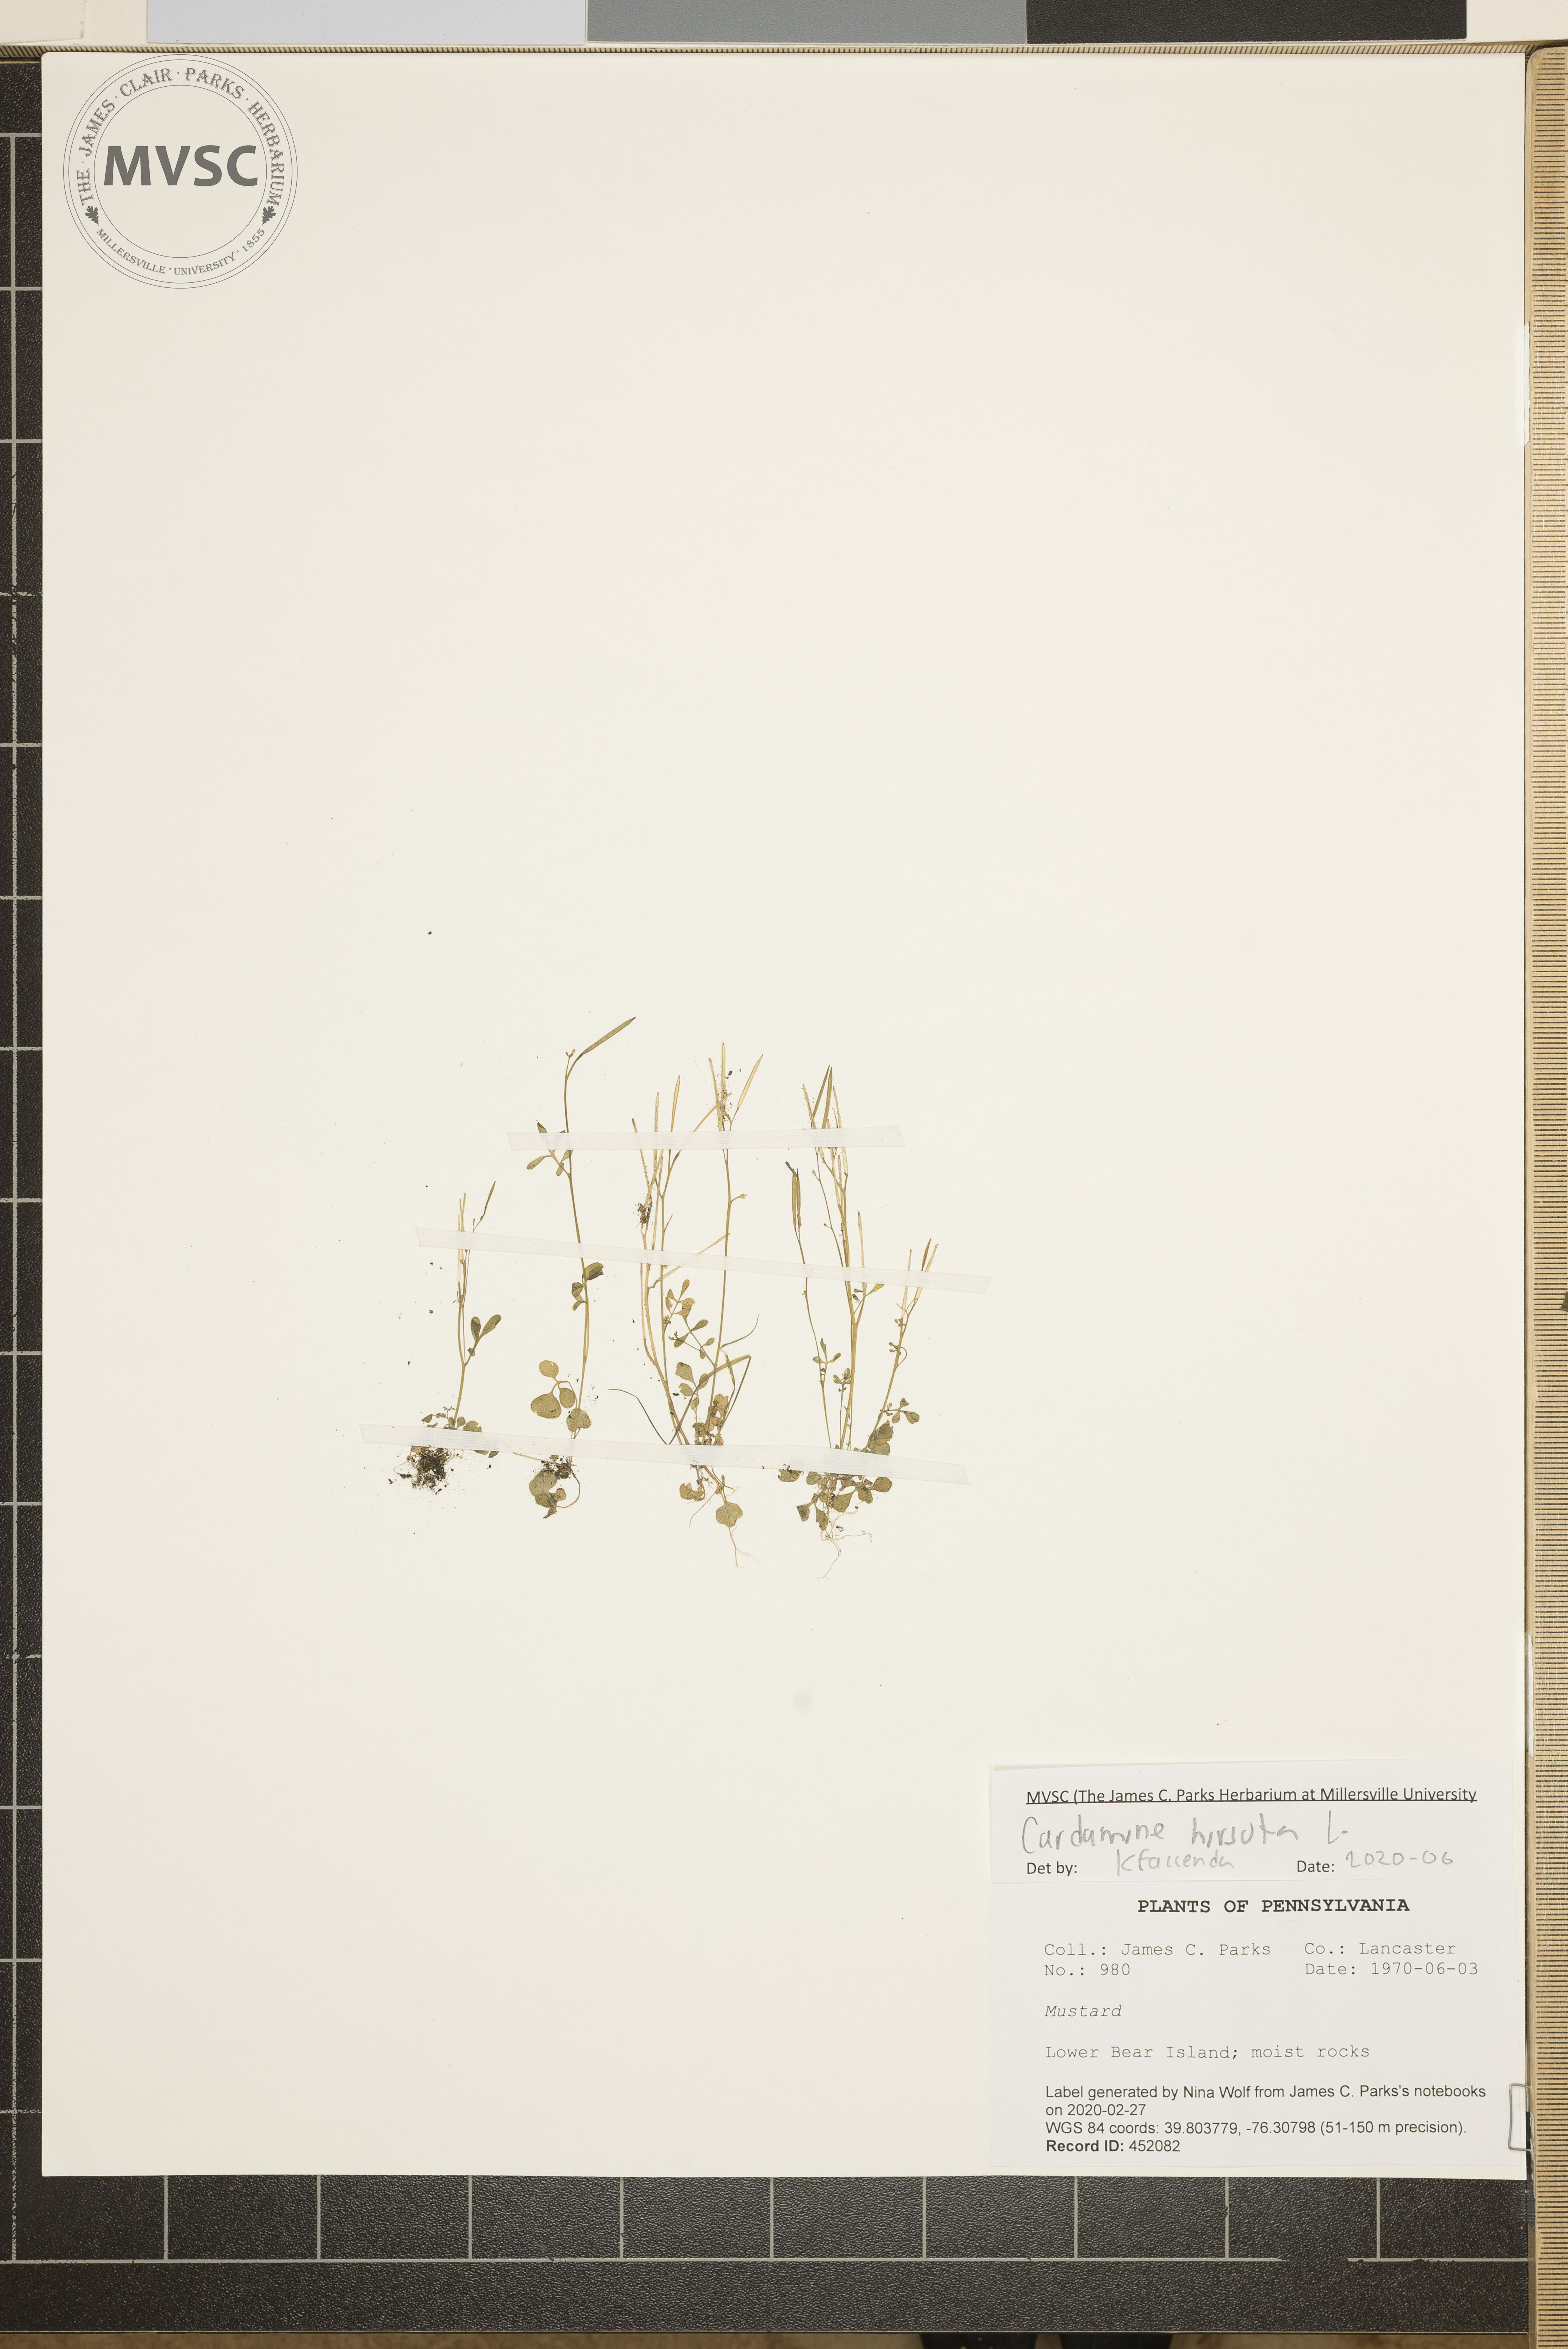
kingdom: Plantae
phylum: Tracheophyta
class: Magnoliopsida
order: Brassicales
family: Brassicaceae
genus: Cardamine
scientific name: Cardamine hirsuta
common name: Hairy bittercress
